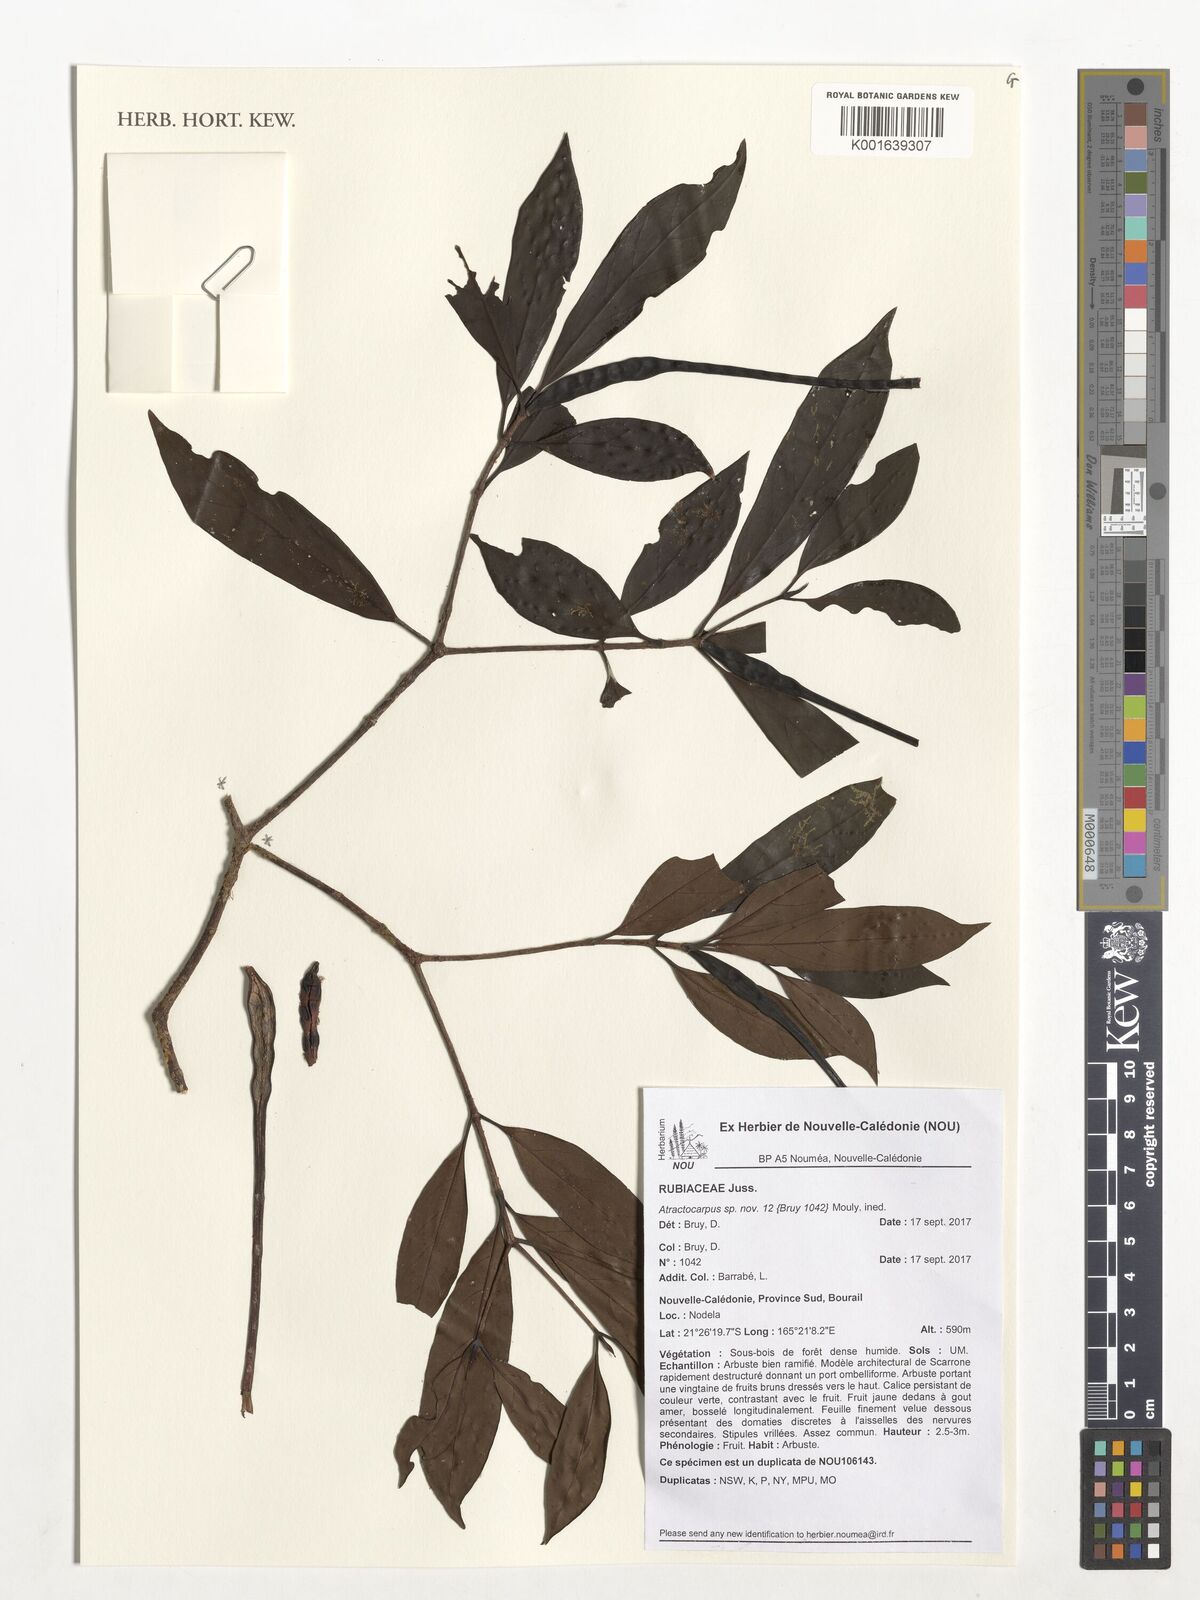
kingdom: Plantae
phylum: Tracheophyta
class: Magnoliopsida
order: Gentianales
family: Rubiaceae
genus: Atractocarpus
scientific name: Atractocarpus
